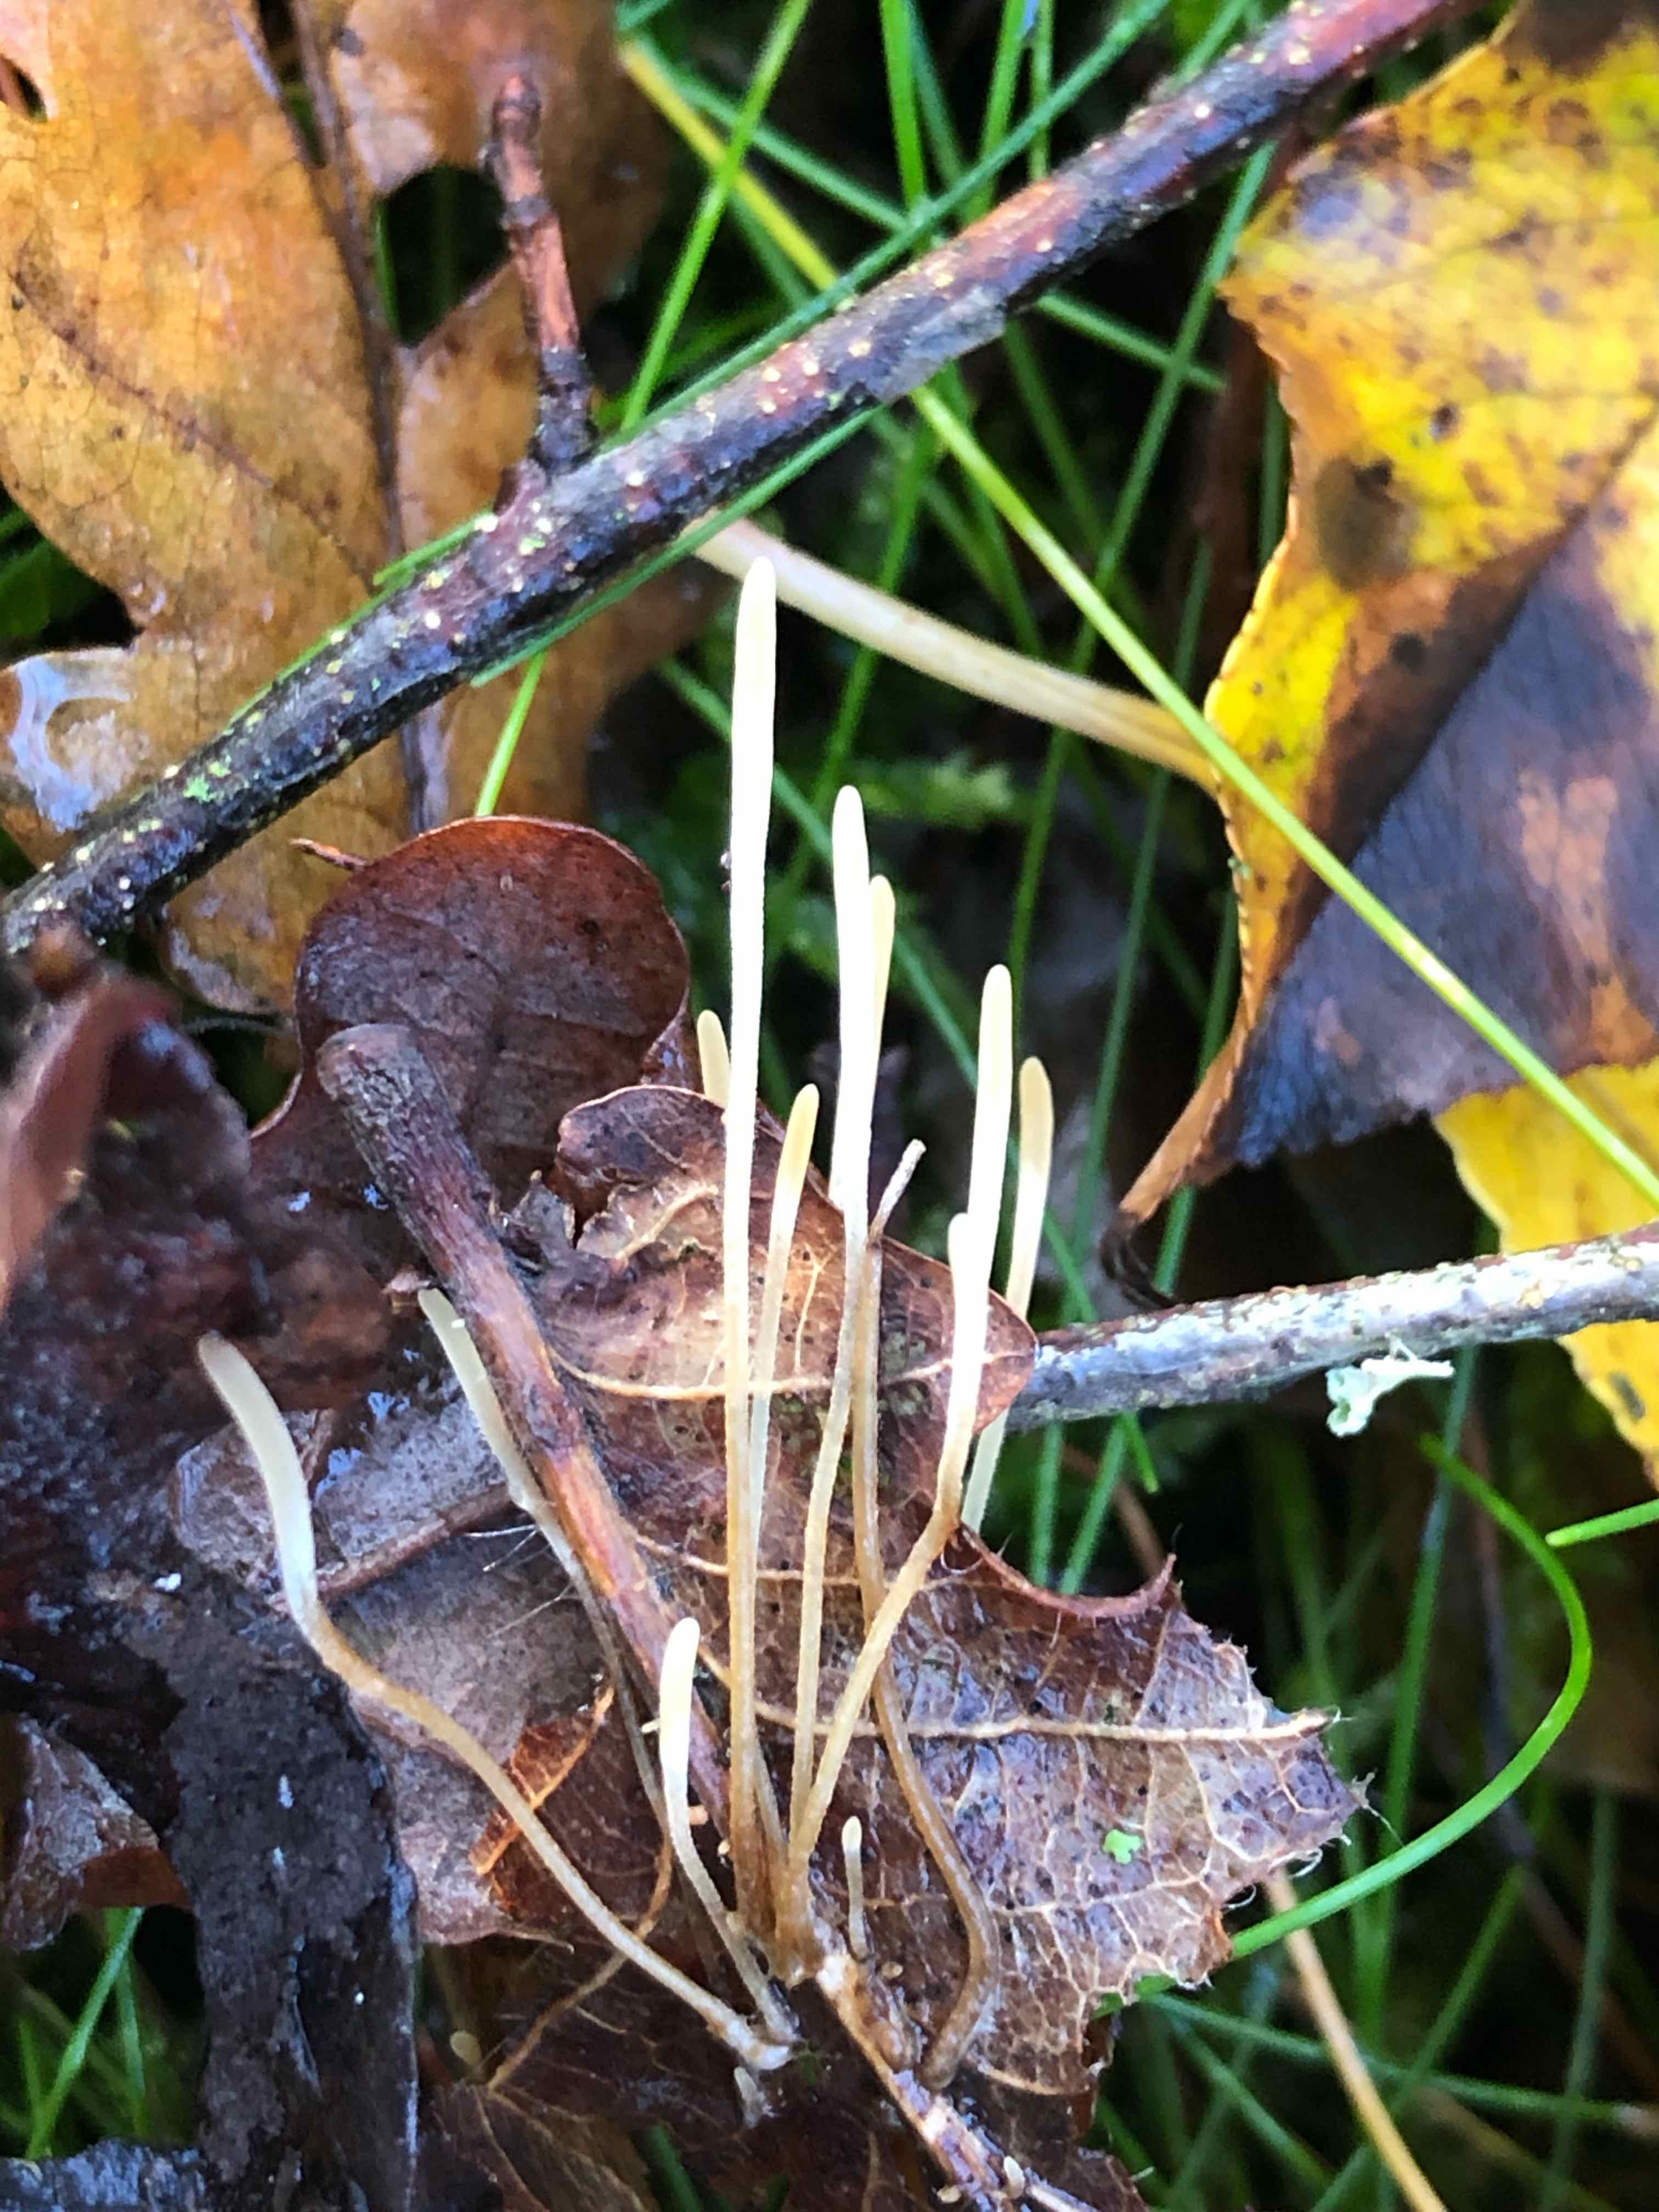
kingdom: Fungi
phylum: Basidiomycota
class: Agaricomycetes
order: Agaricales
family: Typhulaceae
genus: Typhula
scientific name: Typhula juncea
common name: trådagtig rørkølle
